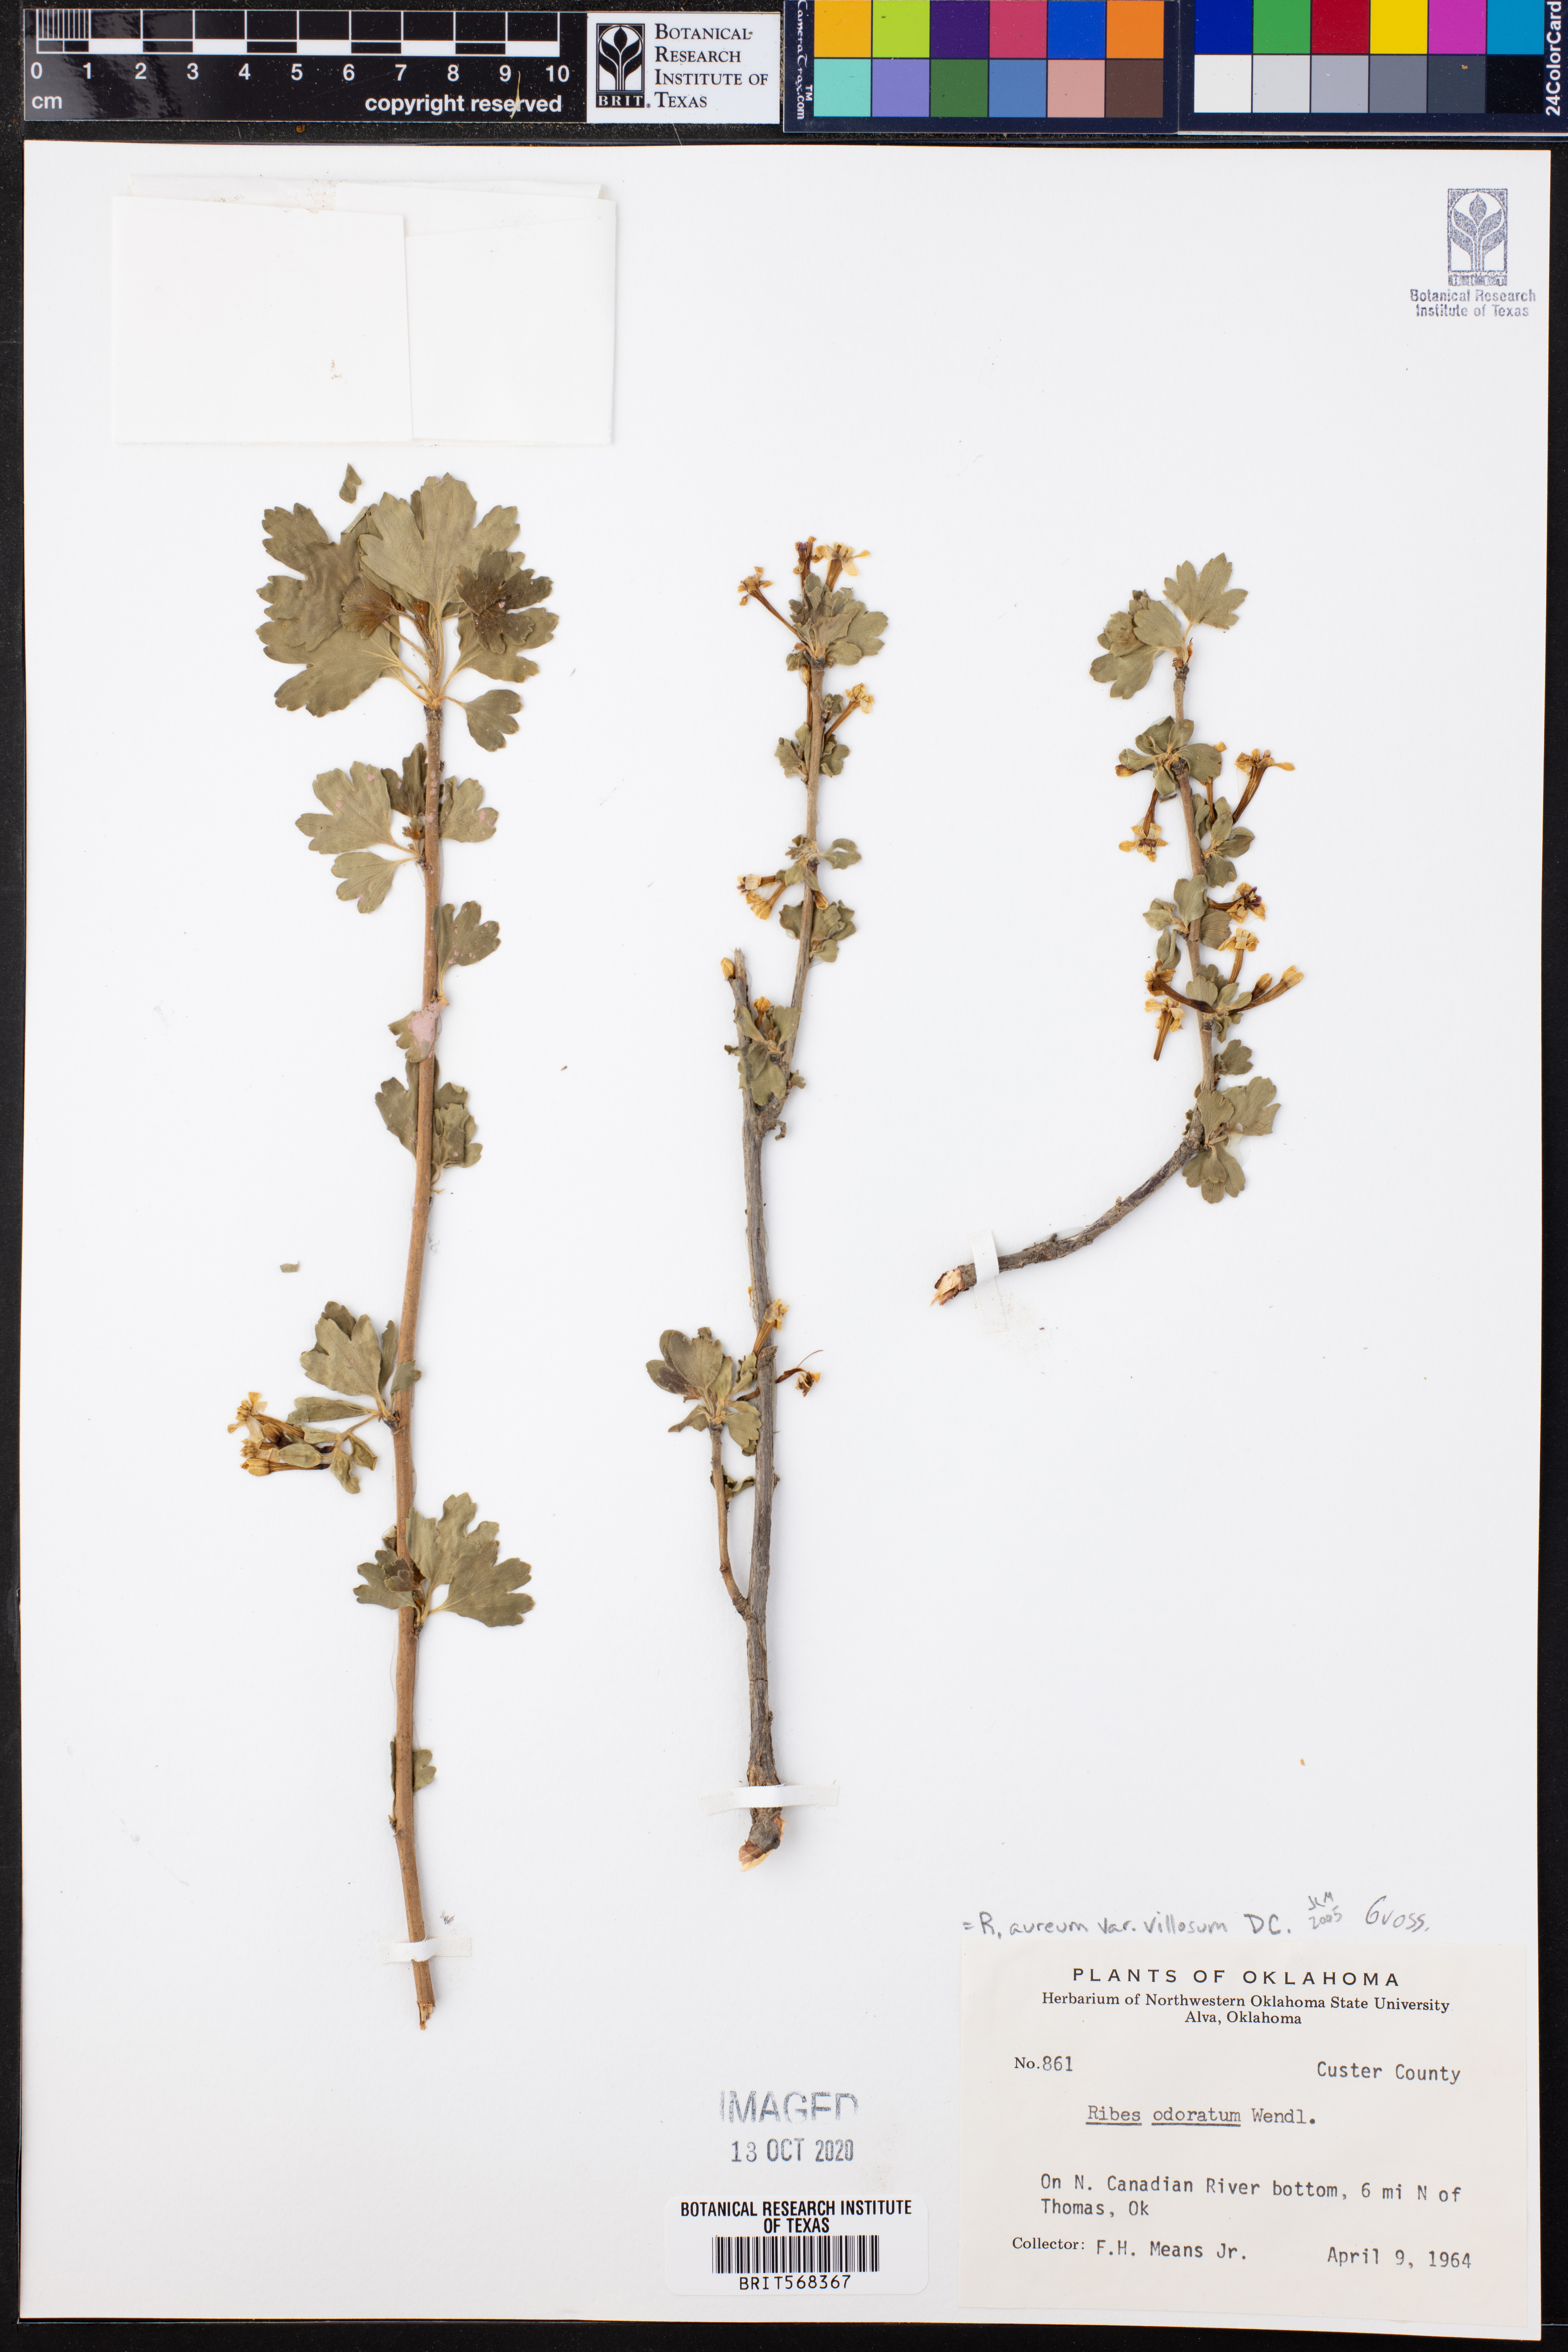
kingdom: Plantae
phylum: Tracheophyta
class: Magnoliopsida
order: Saxifragales
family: Grossulariaceae
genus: Ribes
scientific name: Ribes aureum
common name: Golden currant
